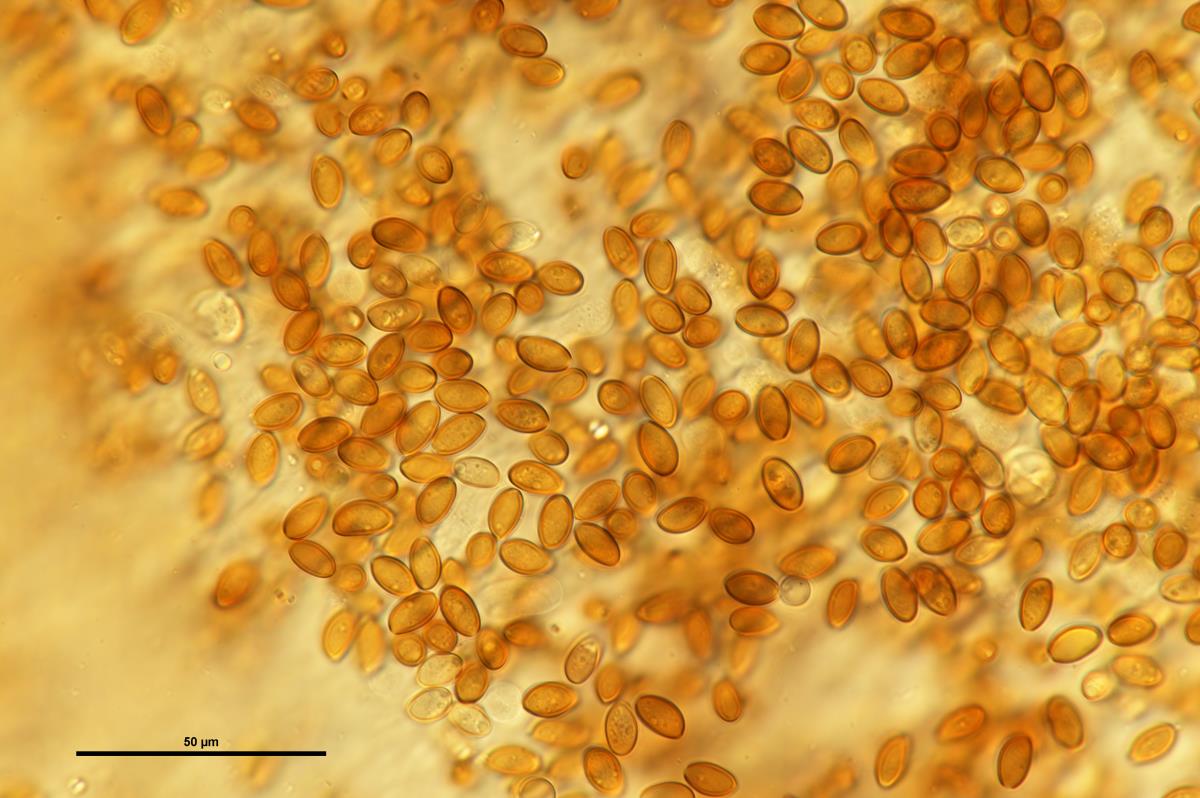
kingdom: Fungi
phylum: Basidiomycota
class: Agaricomycetes
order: Agaricales
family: Agaricaceae
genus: Clavogaster
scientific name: Clavogaster
